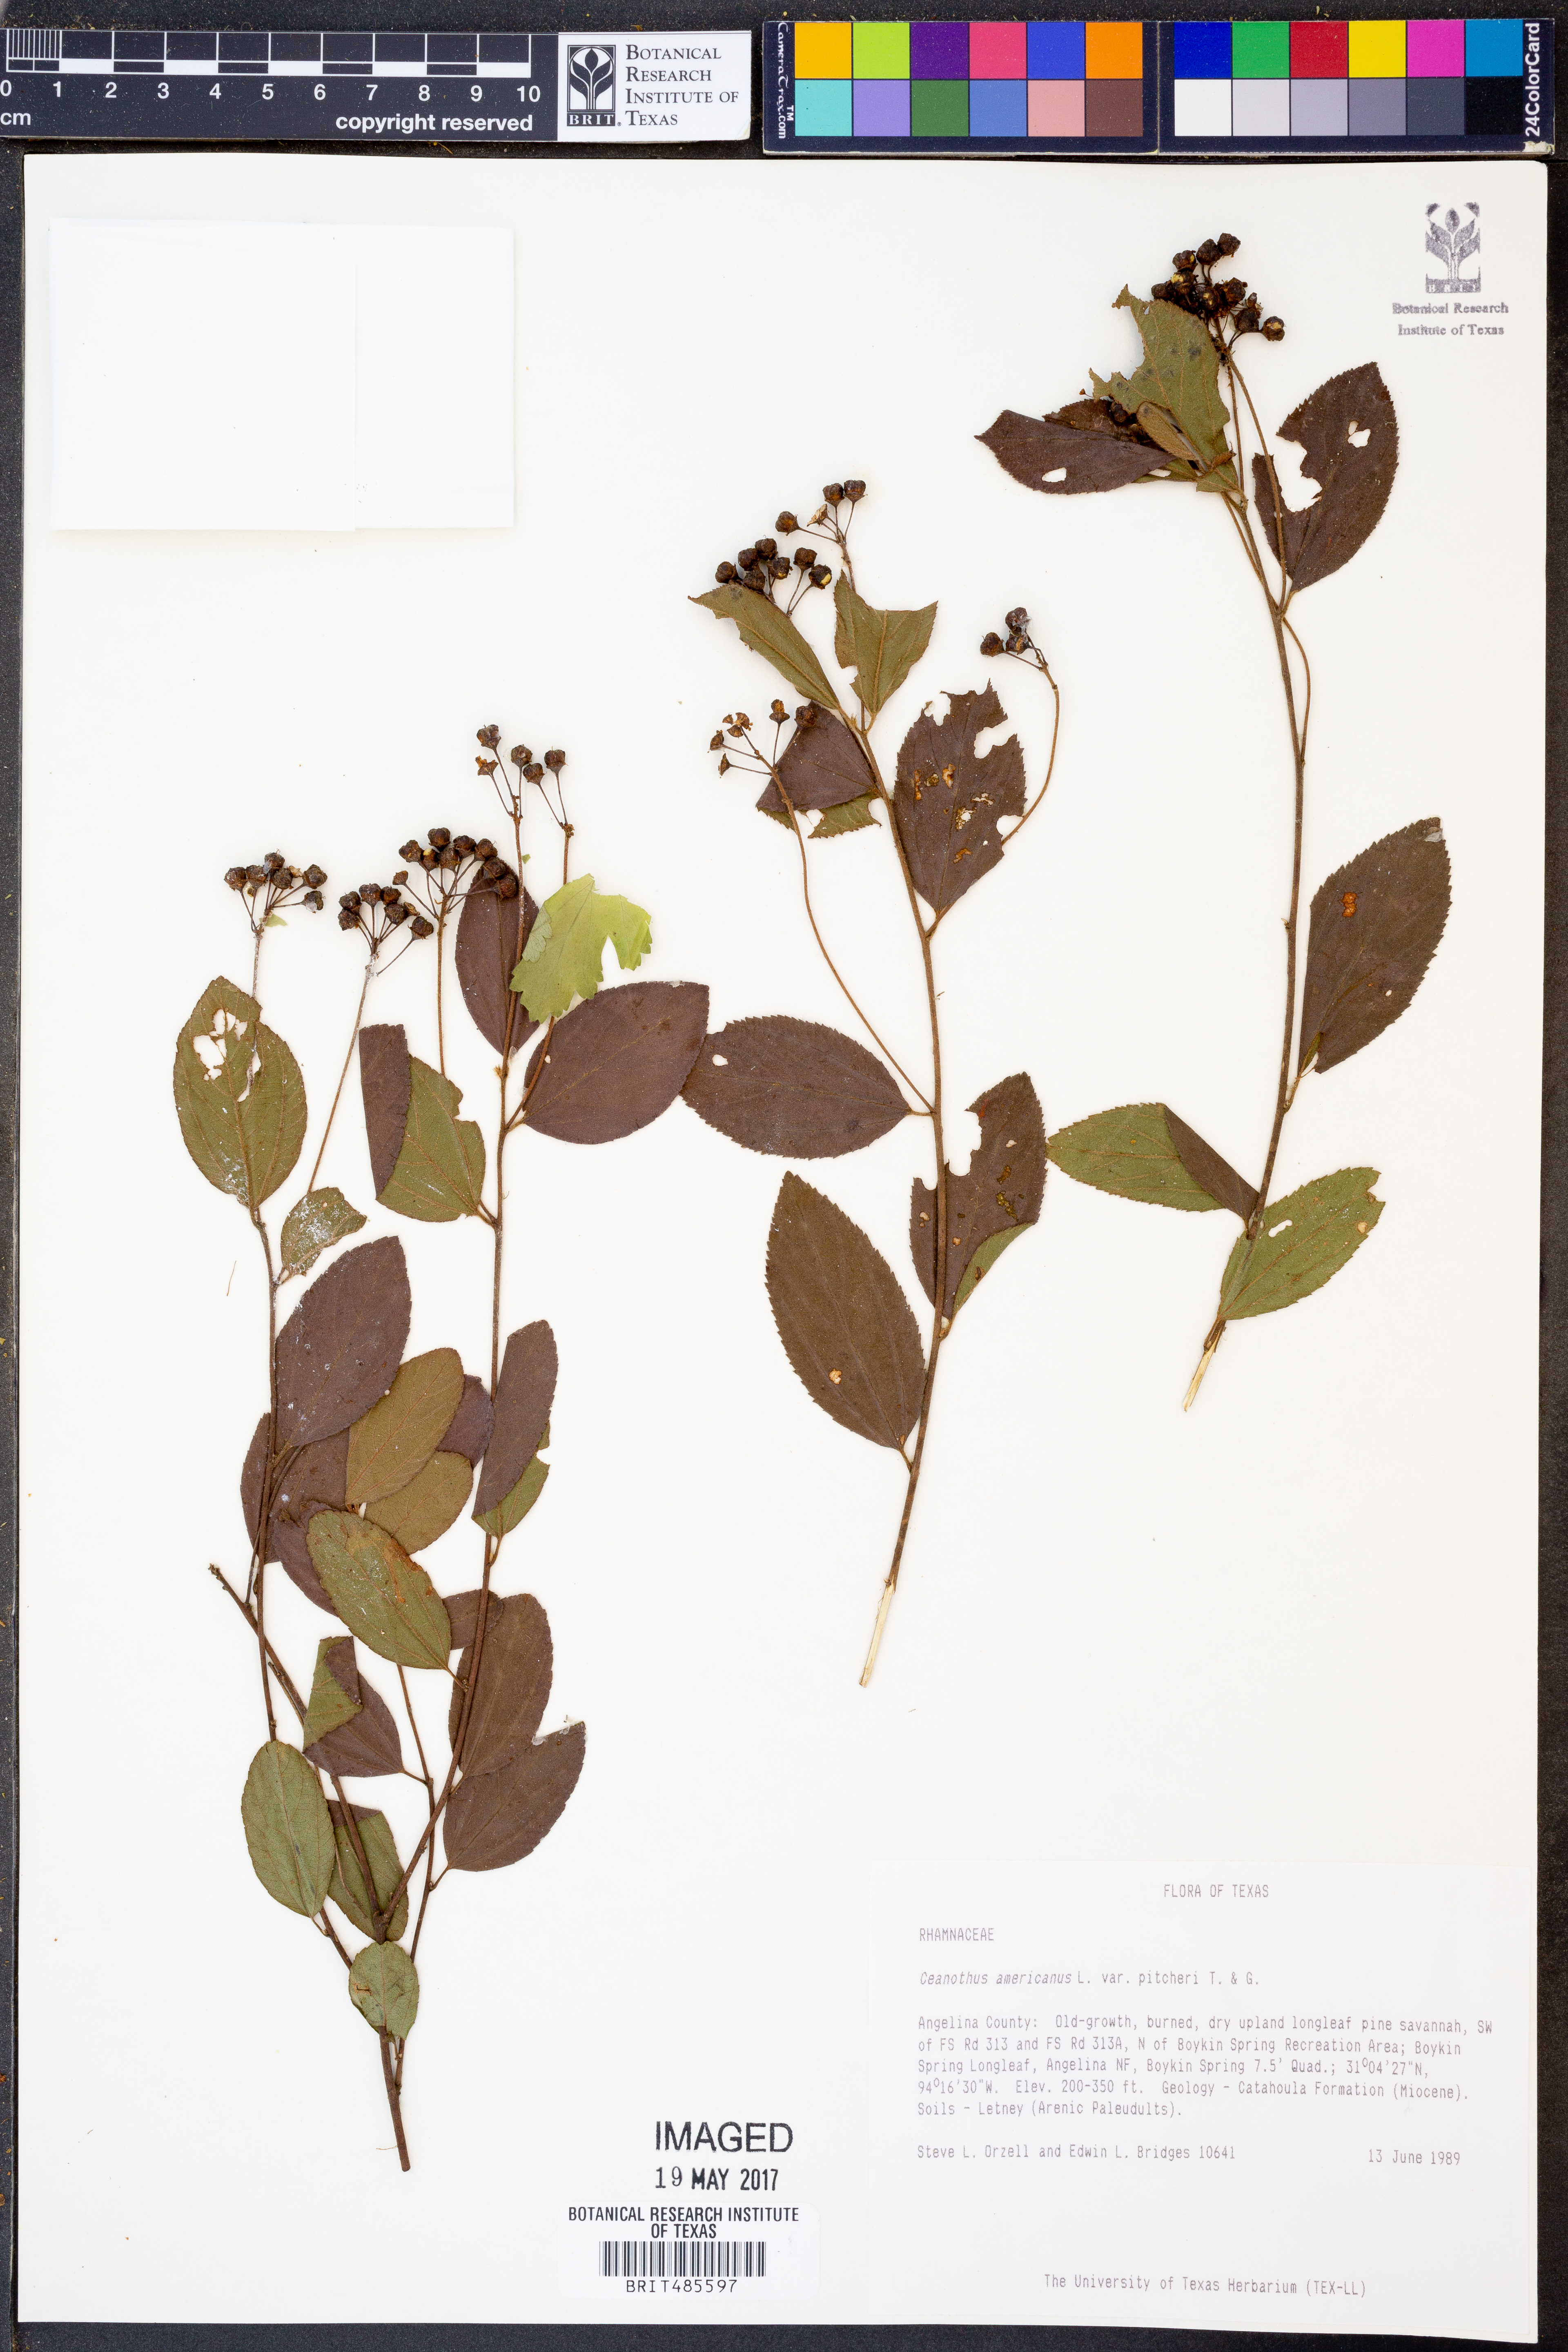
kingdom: Plantae
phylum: Tracheophyta
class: Magnoliopsida
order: Rosales
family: Rhamnaceae
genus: Ceanothus
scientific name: Ceanothus americanus
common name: Redroot
